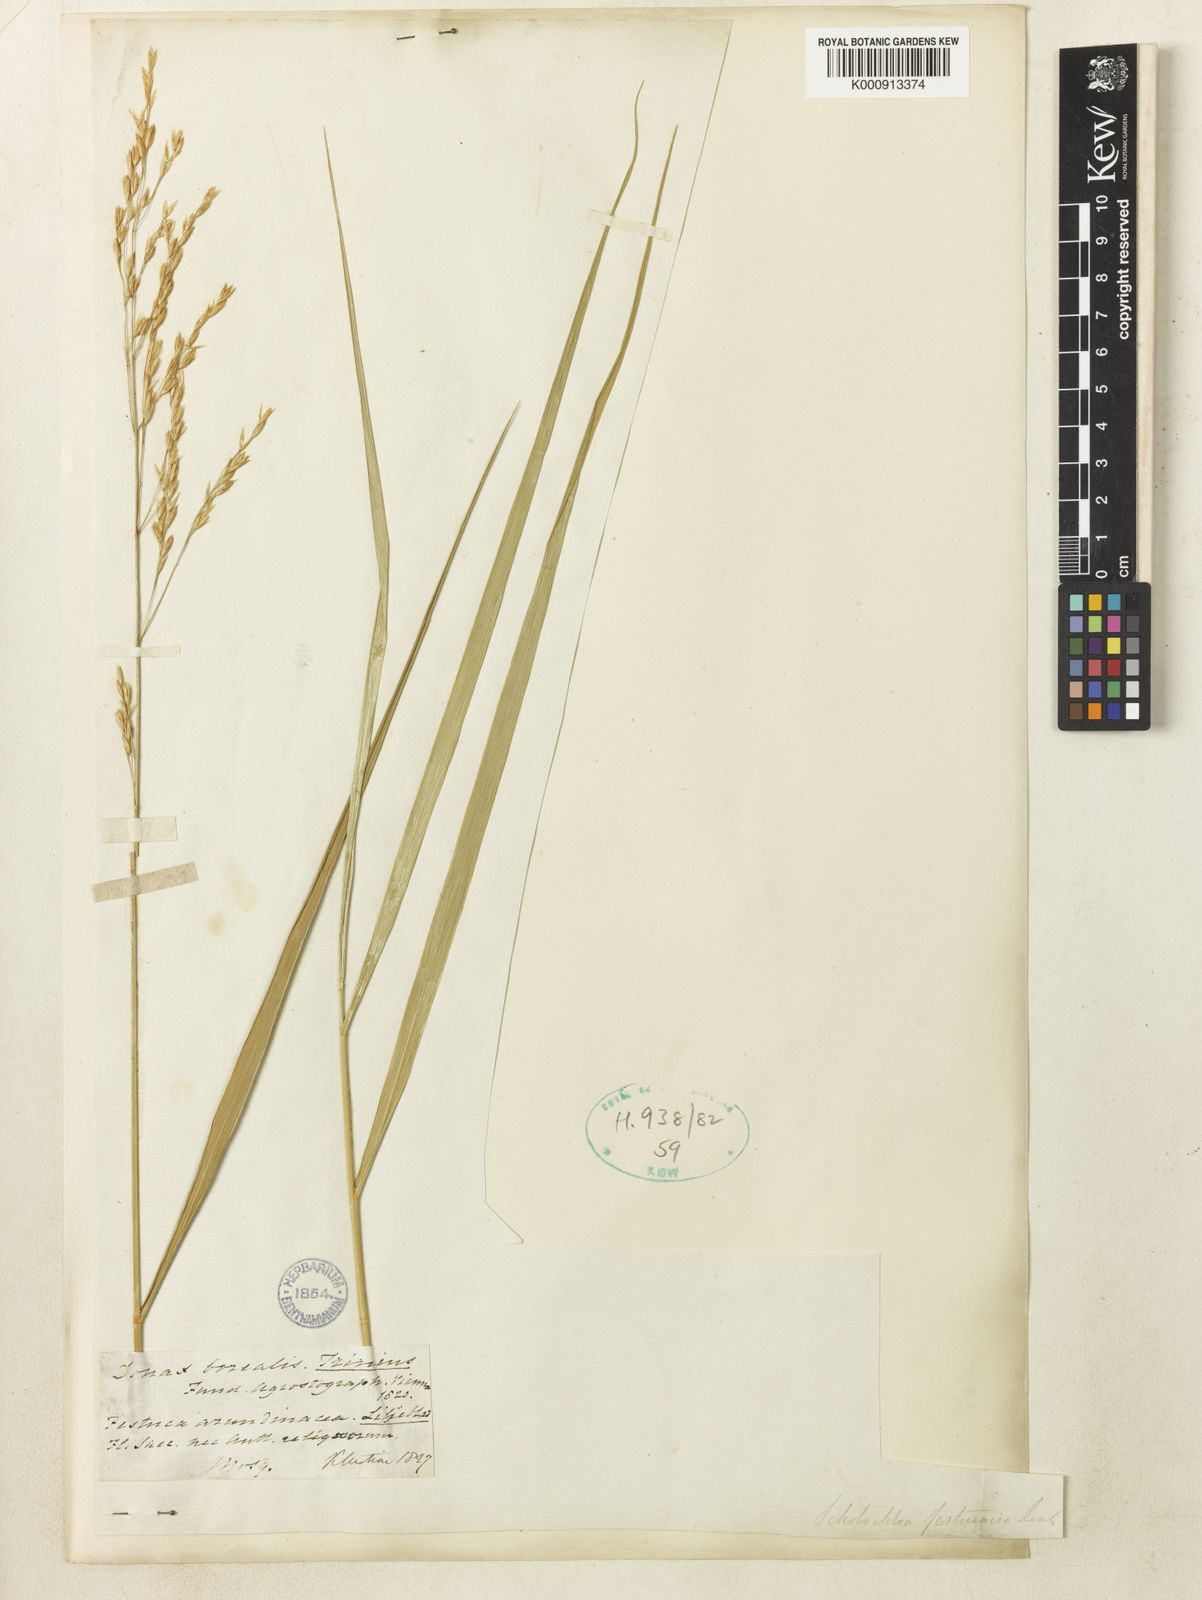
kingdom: Plantae
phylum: Tracheophyta
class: Liliopsida
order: Poales
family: Poaceae
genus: Scolochloa
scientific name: Scolochloa festucacea
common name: Common rivergrass
